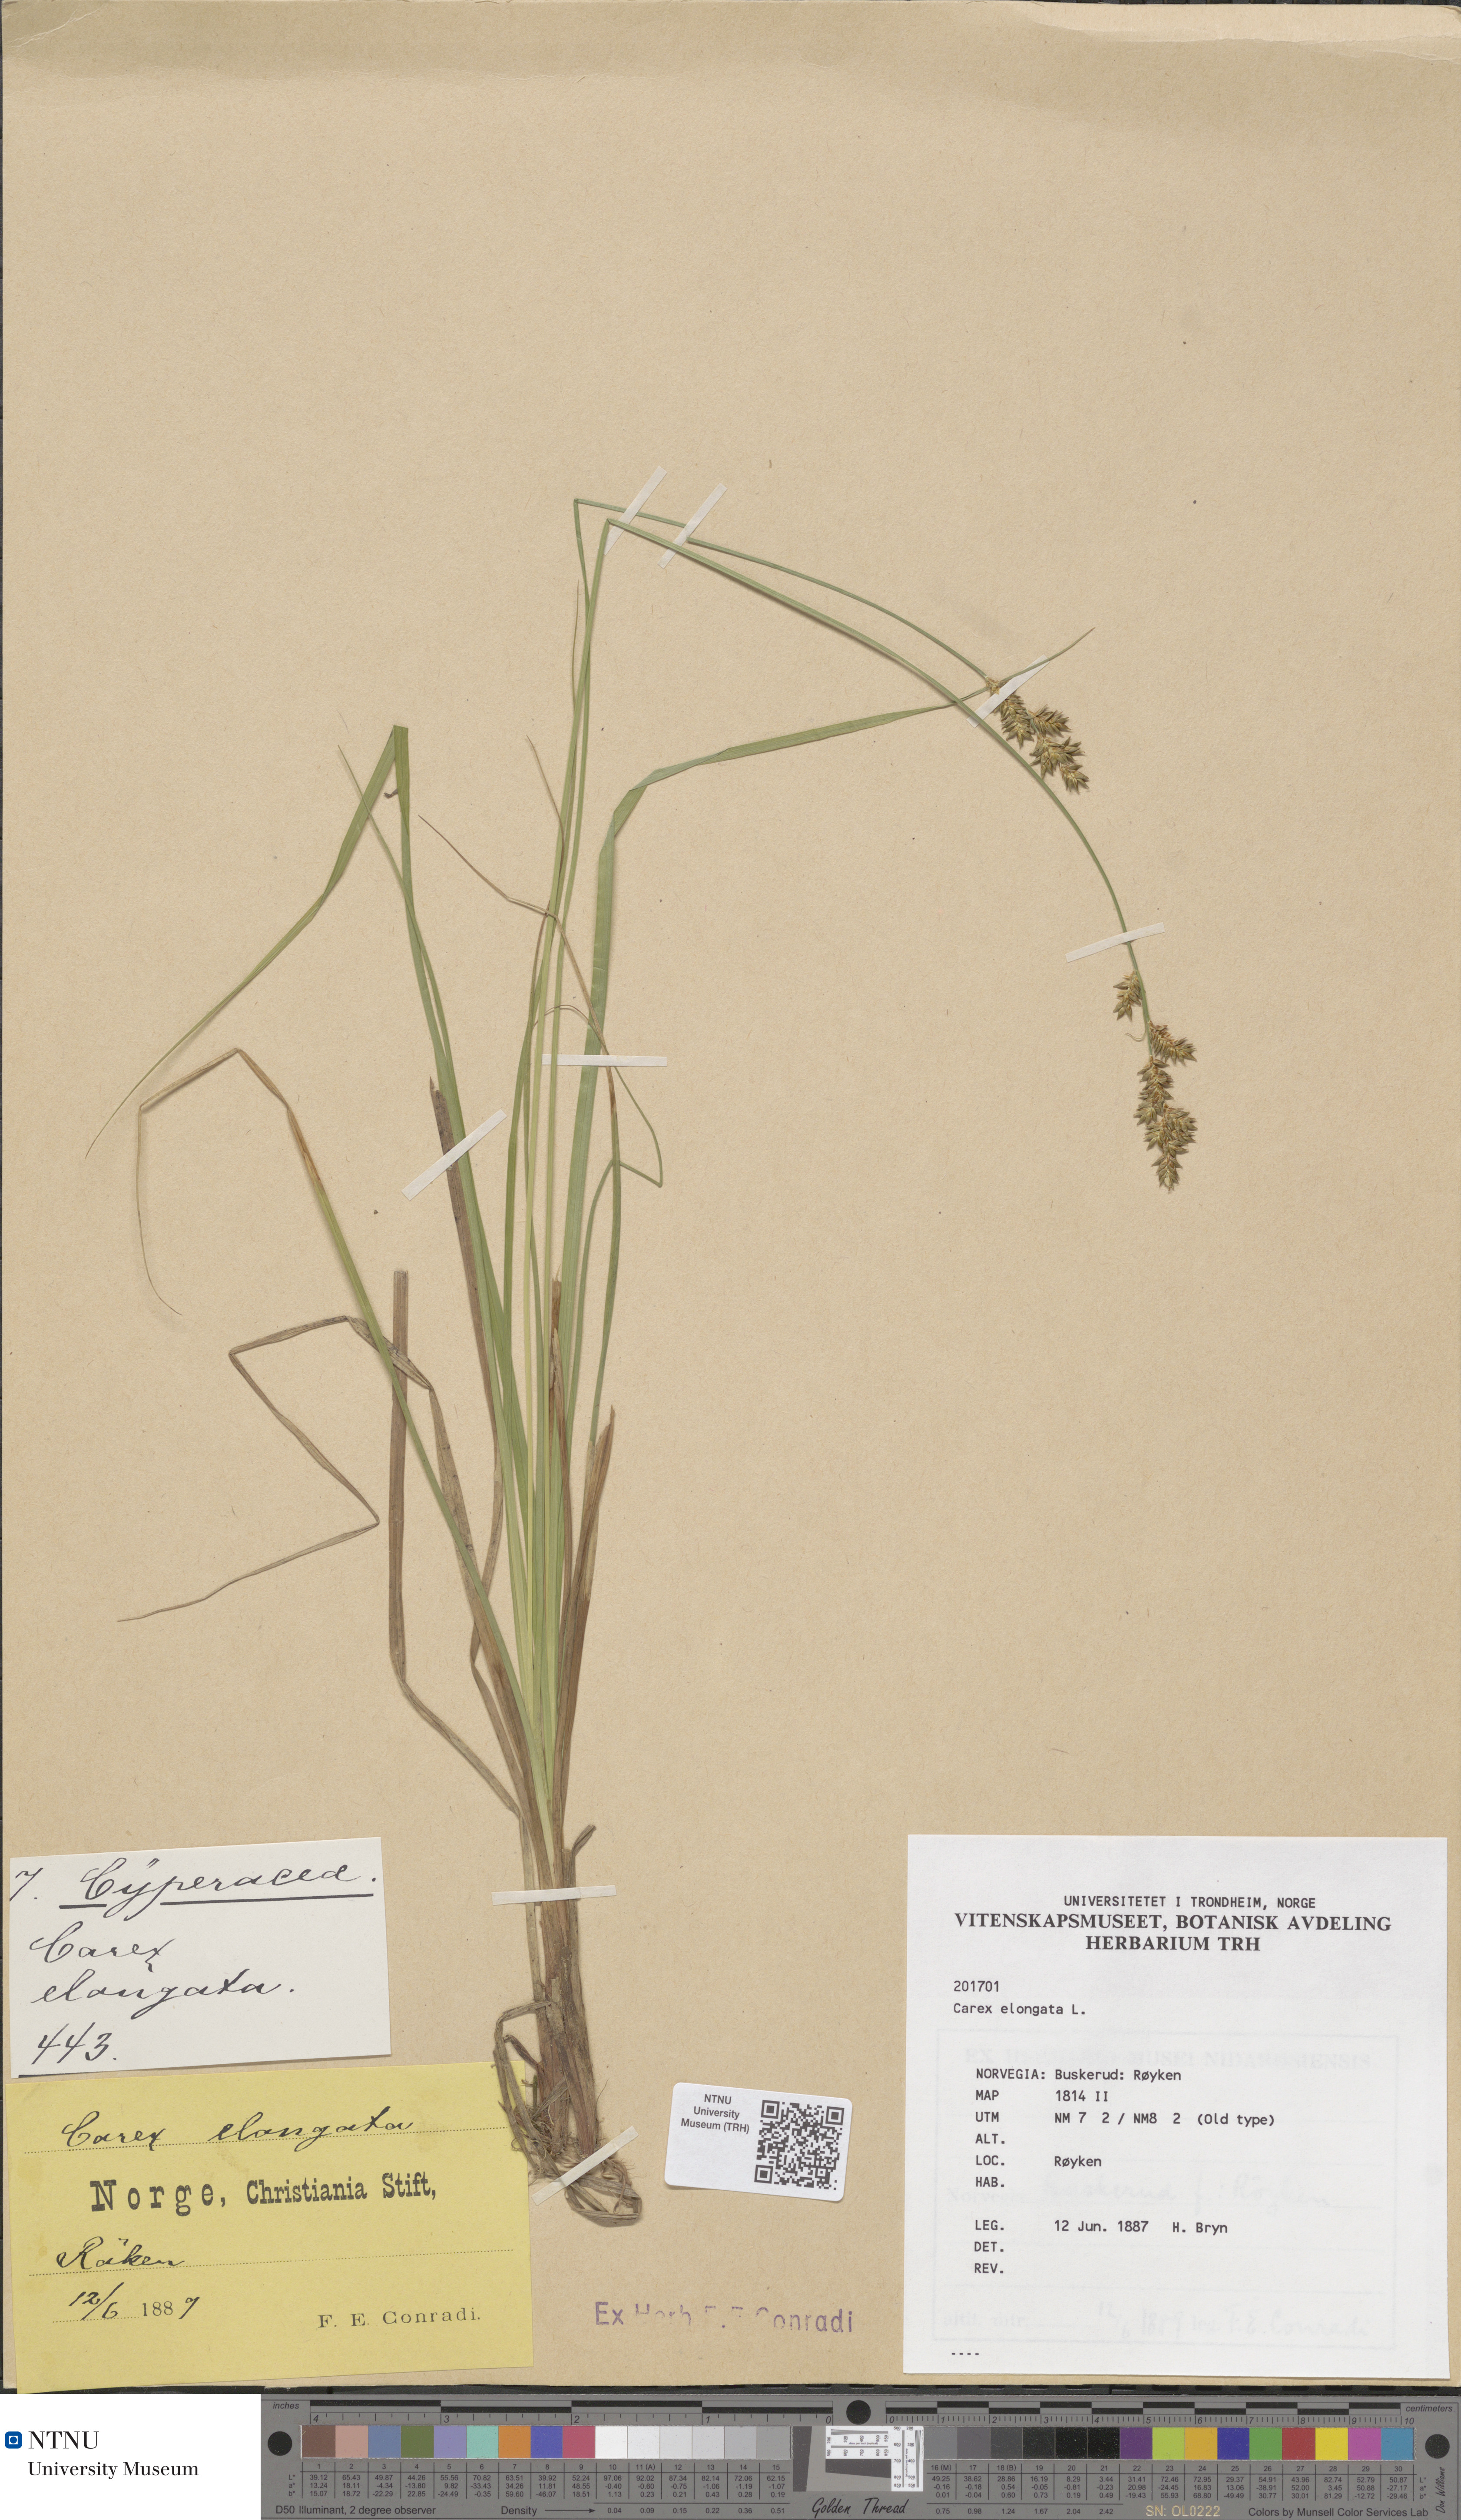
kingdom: Plantae
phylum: Tracheophyta
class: Liliopsida
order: Poales
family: Cyperaceae
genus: Carex
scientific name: Carex elongata
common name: Elongated sedge
